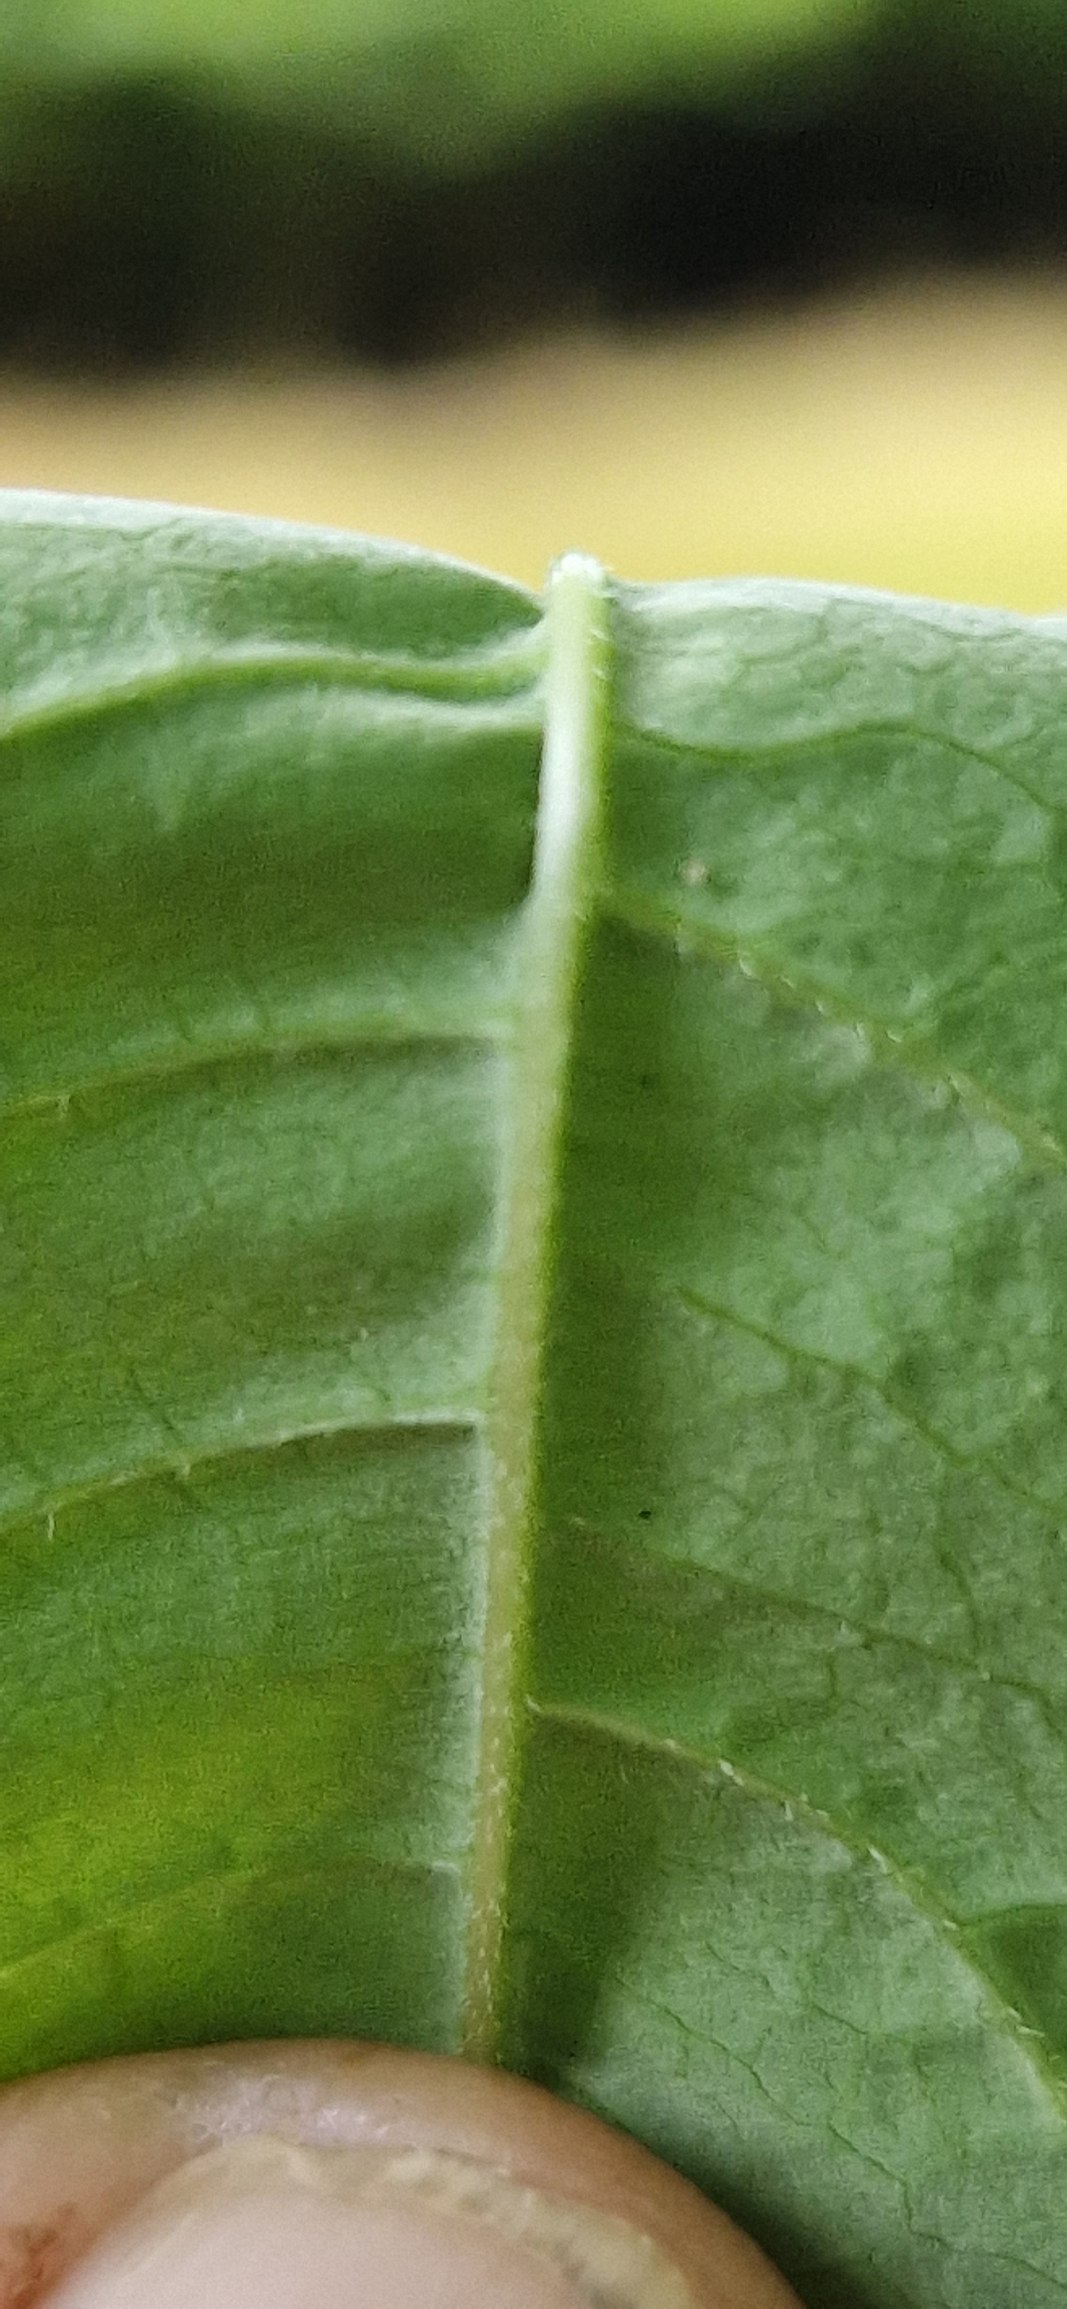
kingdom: Plantae
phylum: Tracheophyta
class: Magnoliopsida
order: Sapindales
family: Rutaceae
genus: Phellodendron
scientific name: Phellodendron amurense
